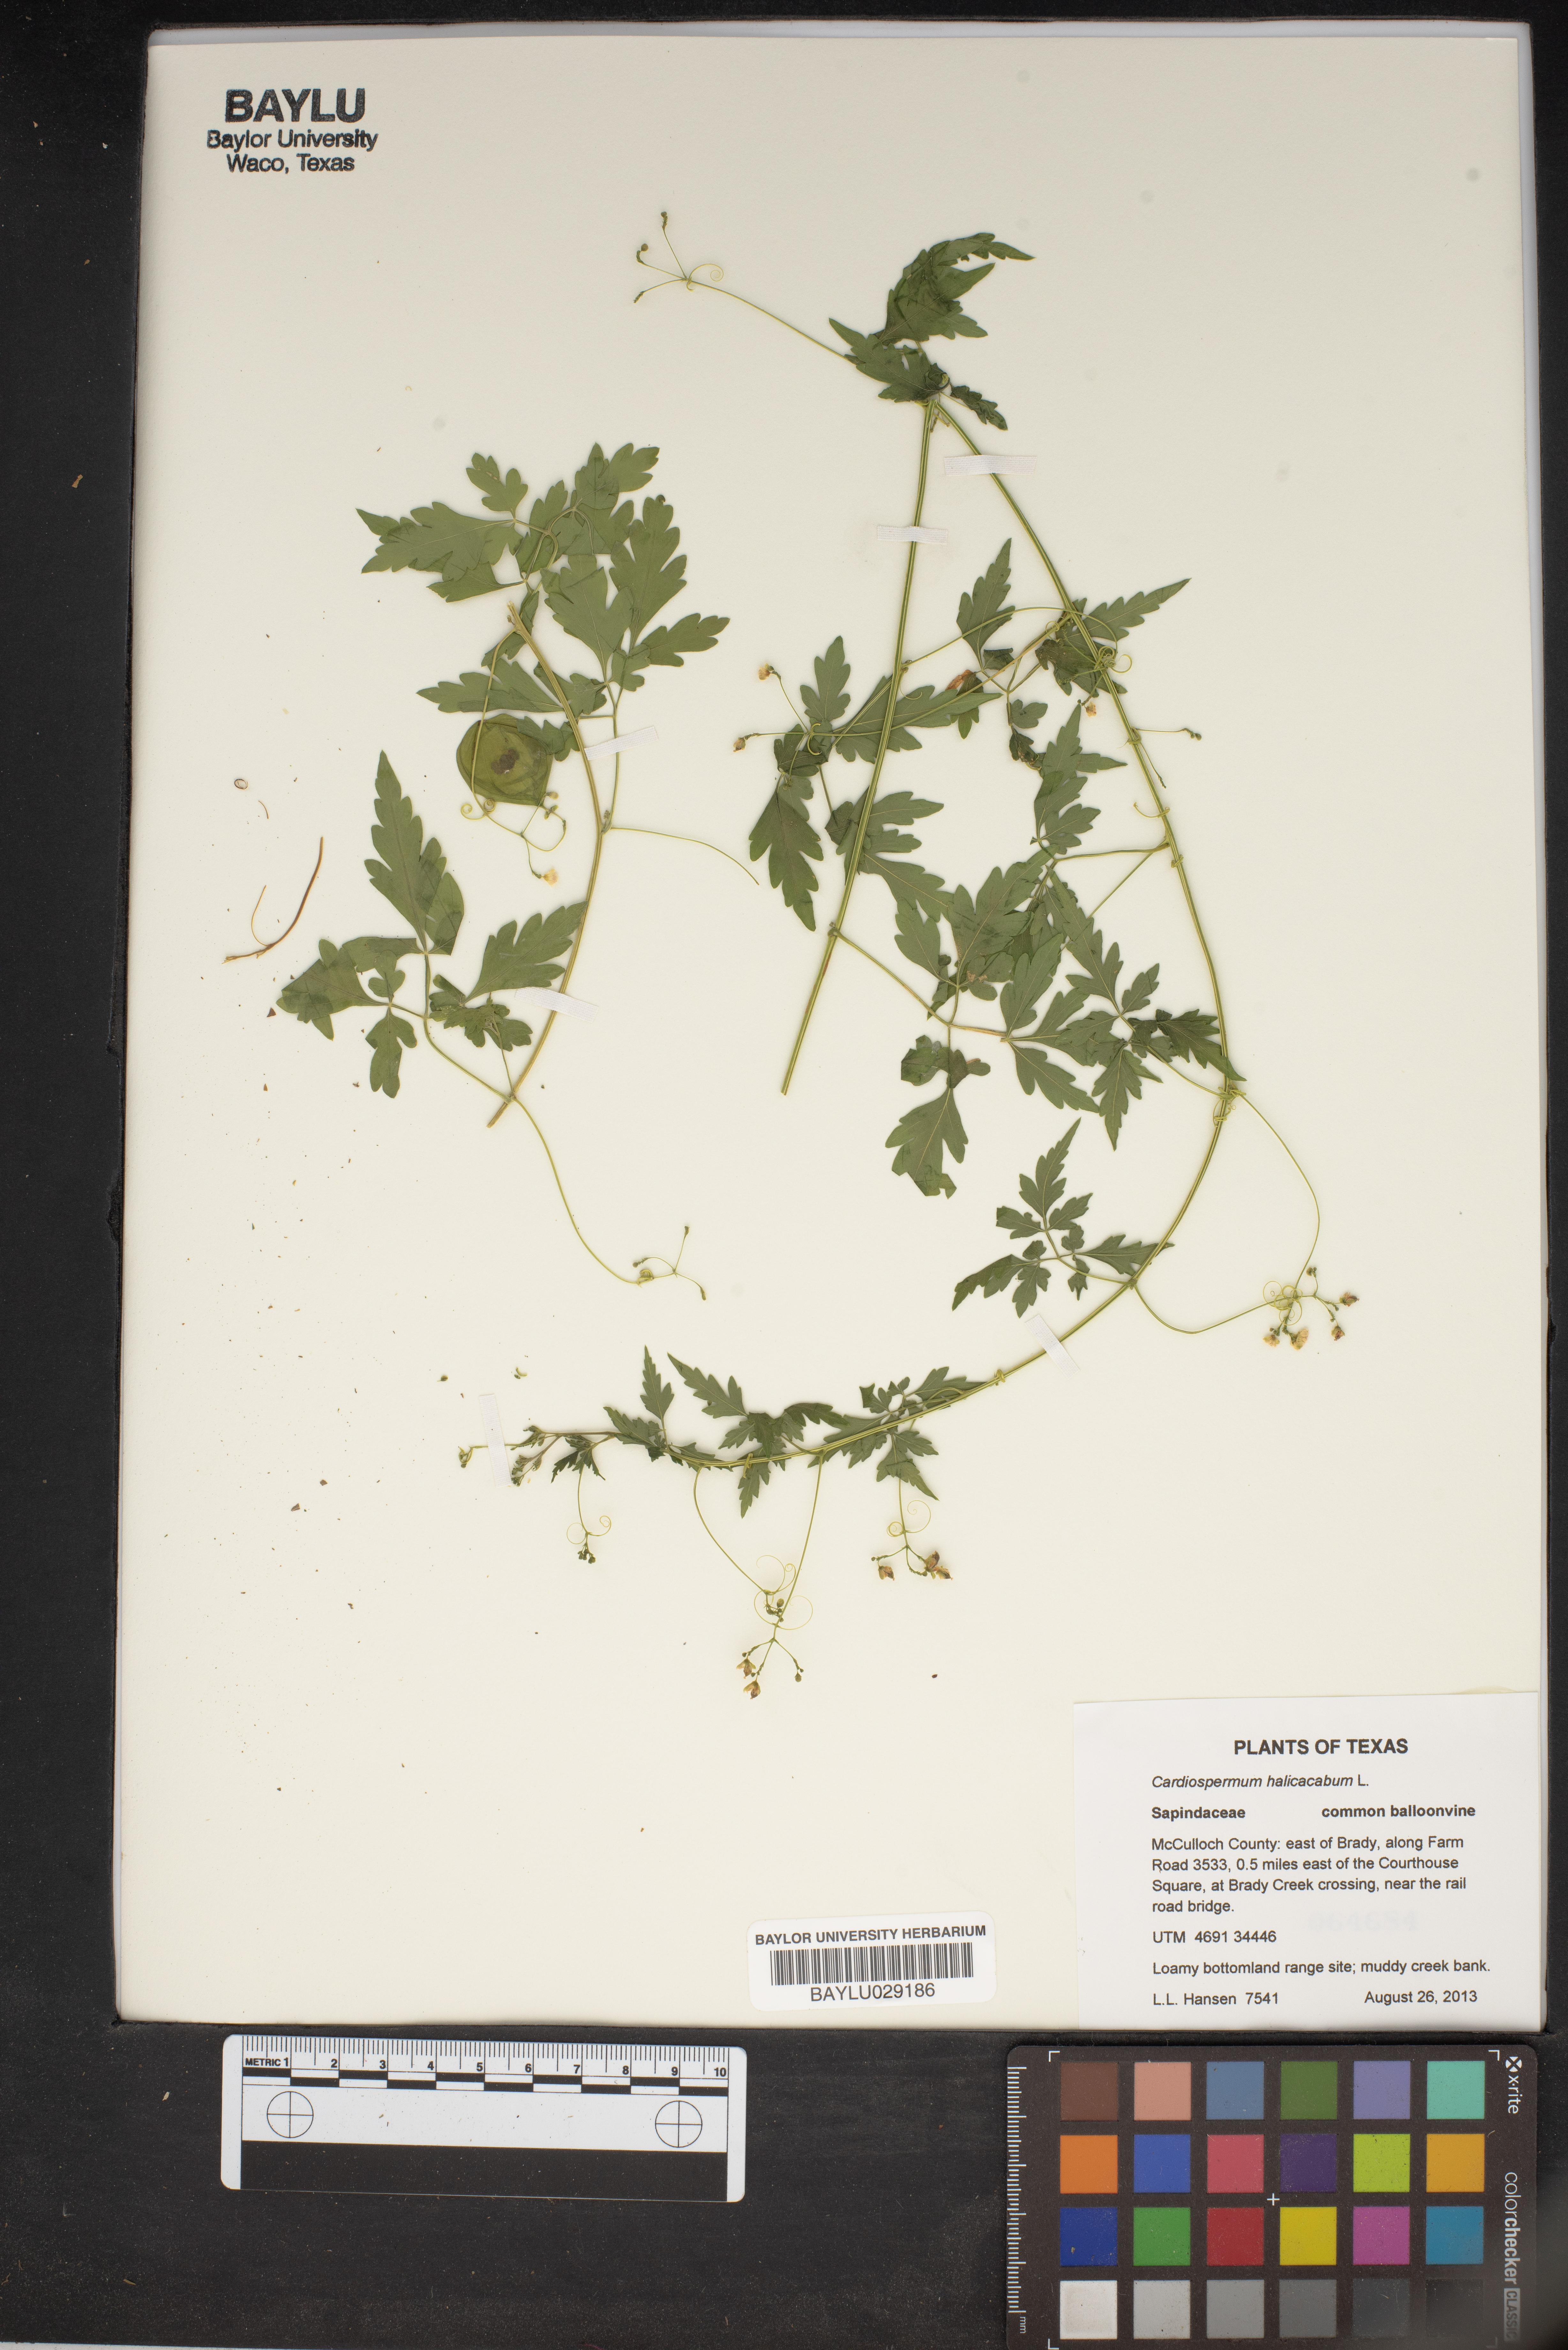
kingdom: Plantae
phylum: Tracheophyta
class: Magnoliopsida
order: Sapindales
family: Sapindaceae
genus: Cardiospermum
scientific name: Cardiospermum halicacabum
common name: Balloon vine
